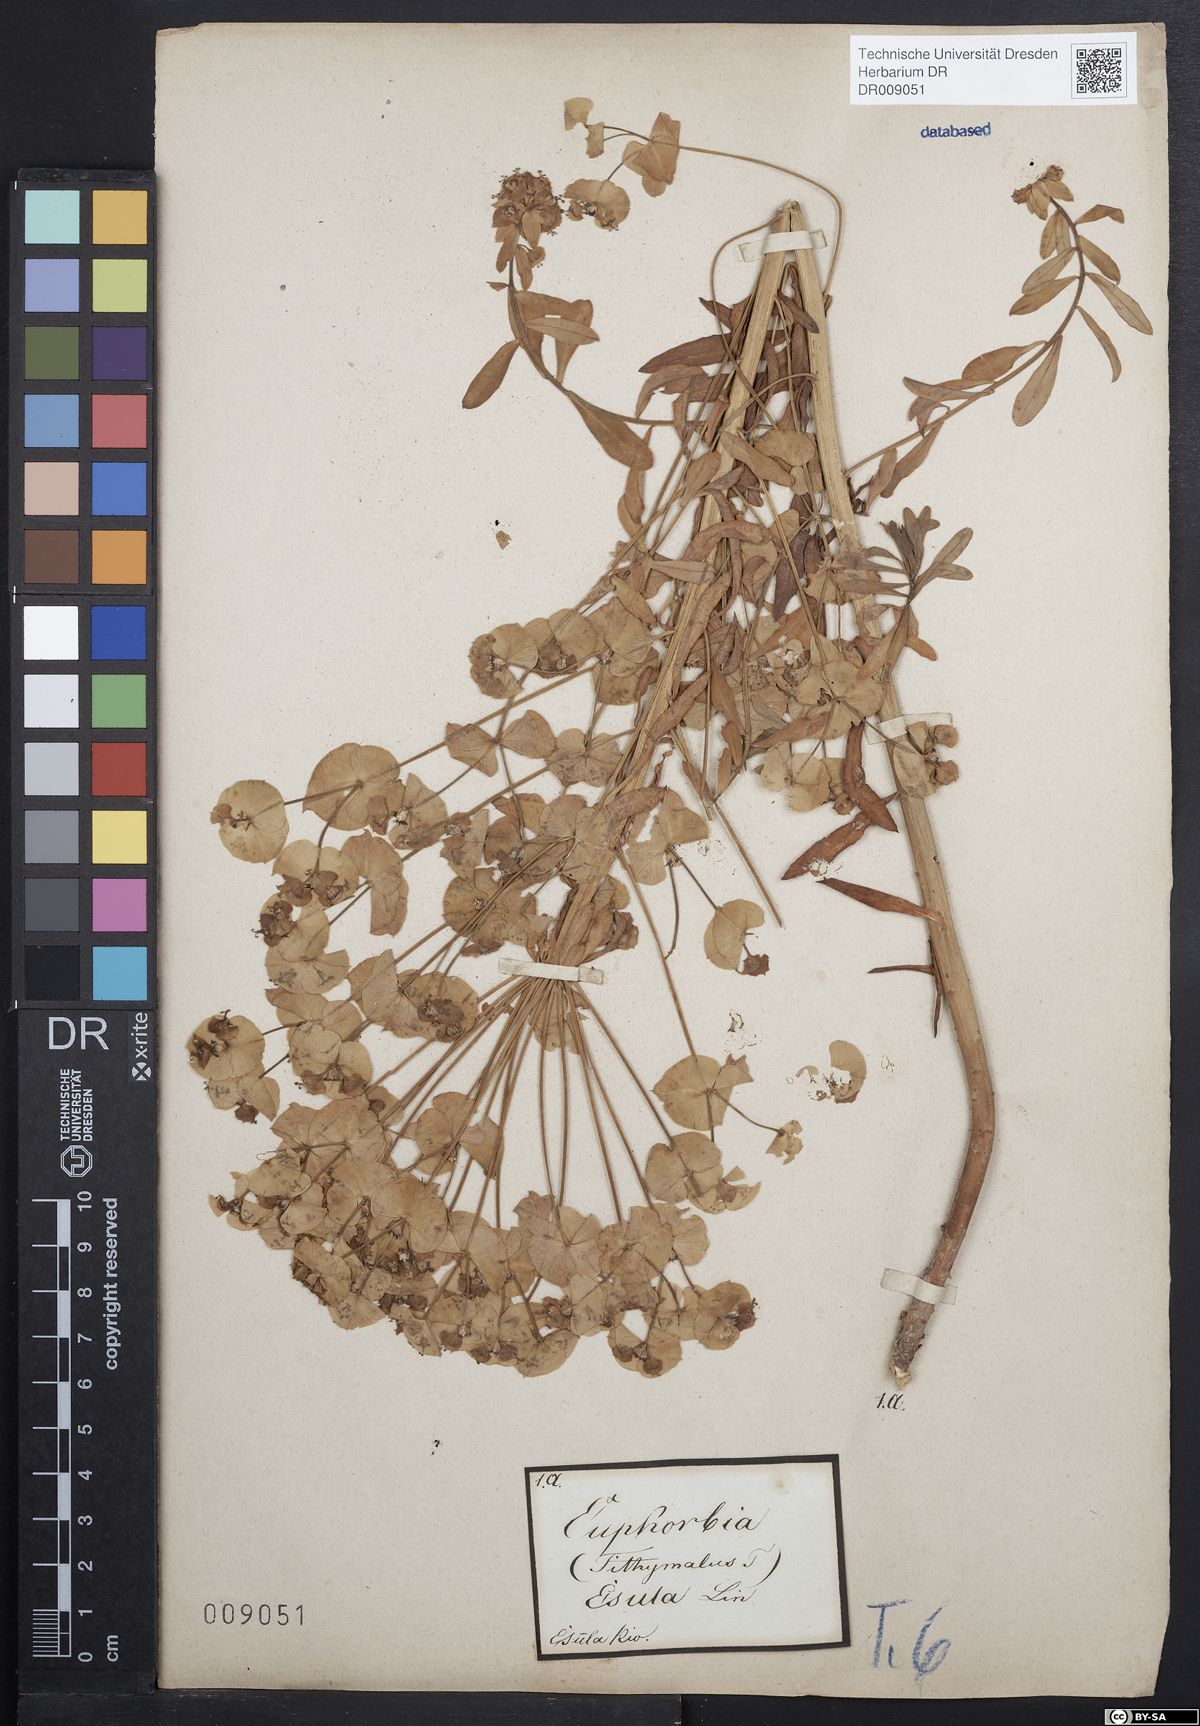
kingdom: Plantae
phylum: Tracheophyta
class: Magnoliopsida
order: Malpighiales
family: Euphorbiaceae
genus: Euphorbia
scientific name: Euphorbia esula
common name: Leafy spurge
